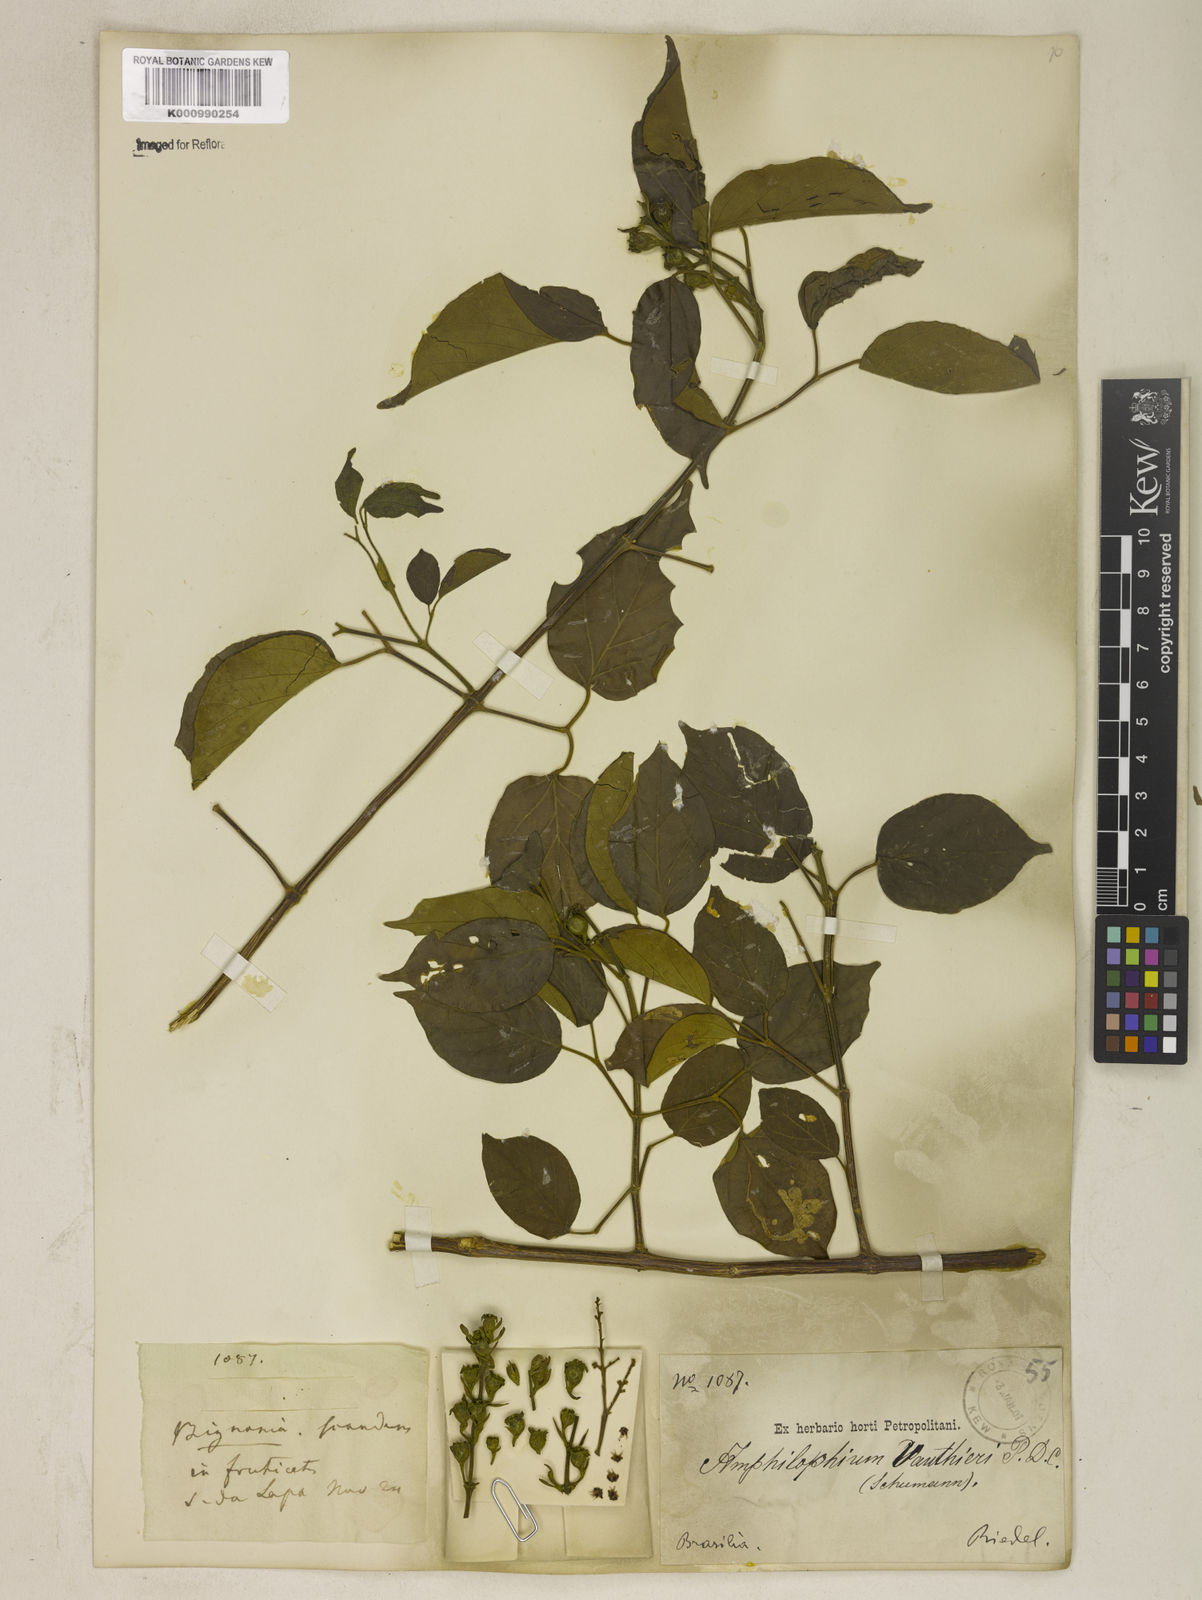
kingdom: Plantae
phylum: Tracheophyta
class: Magnoliopsida
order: Lamiales
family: Bignoniaceae
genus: Amphilophium
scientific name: Amphilophium paniculatum
